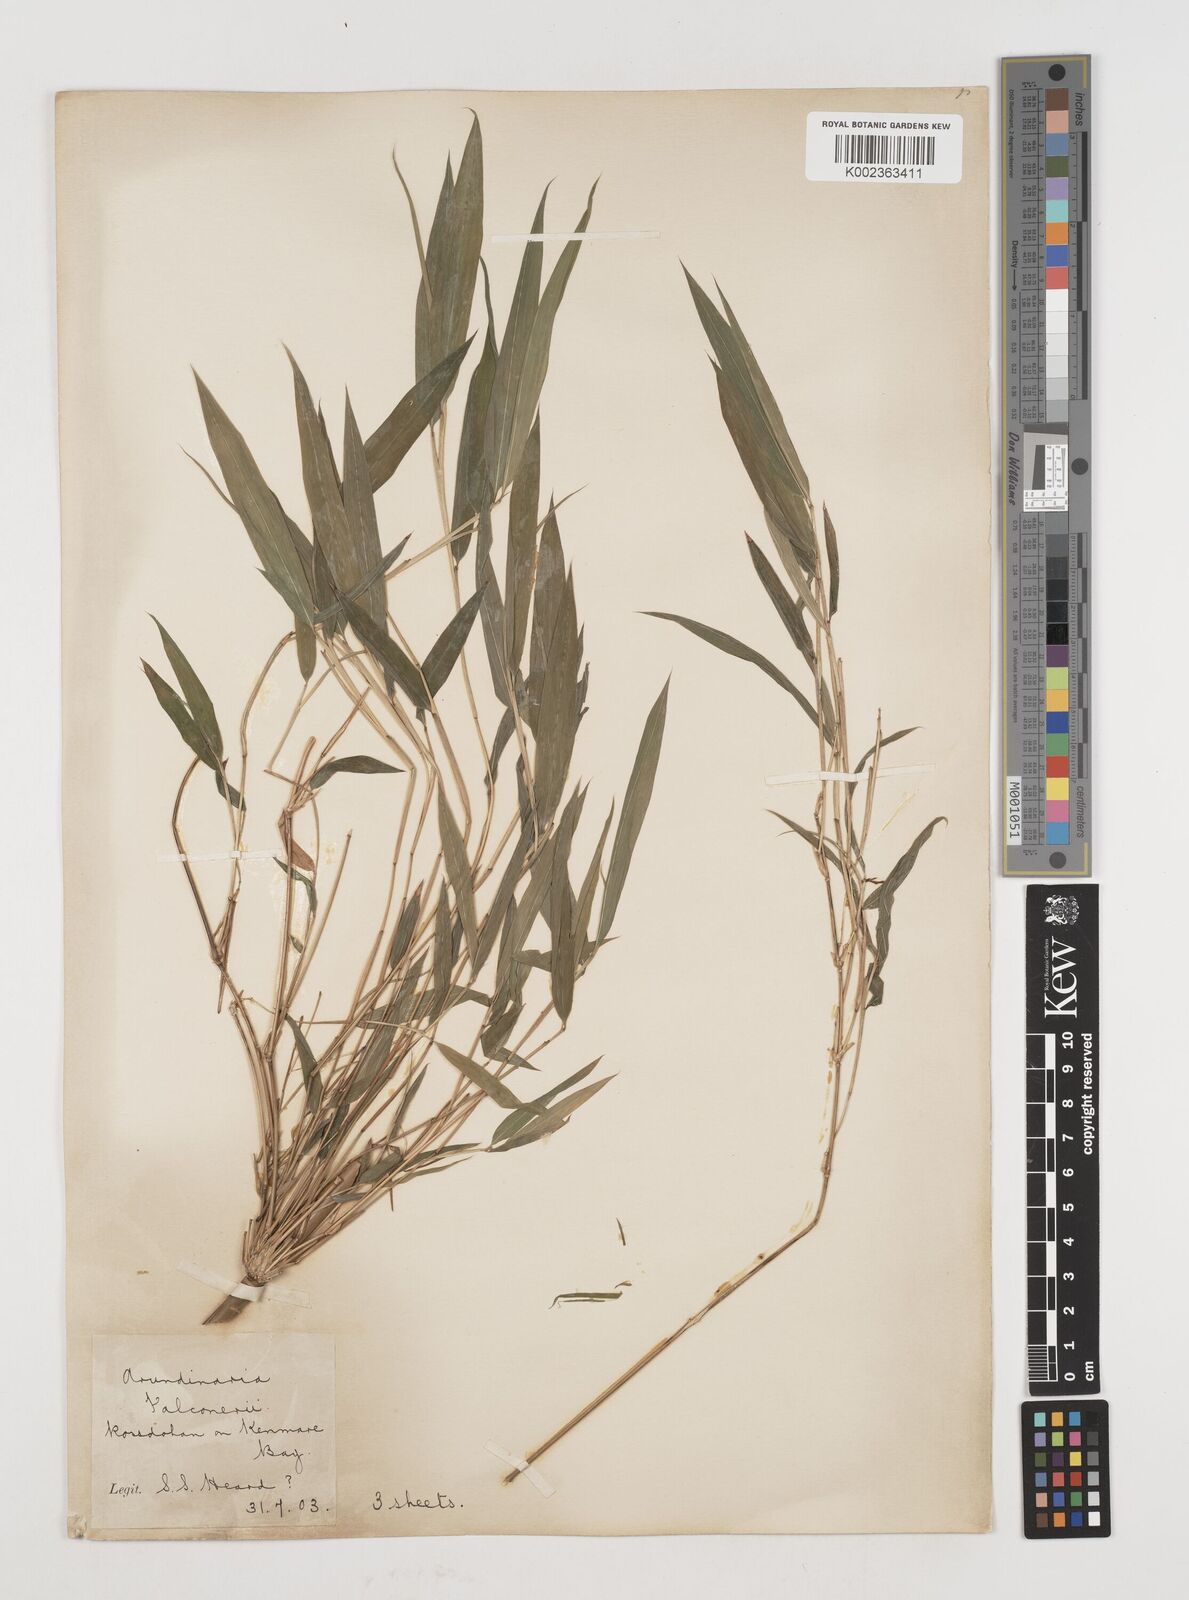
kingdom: Plantae
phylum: Tracheophyta
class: Liliopsida
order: Poales
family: Poaceae
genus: Himalayacalamus
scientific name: Himalayacalamus falconeri
